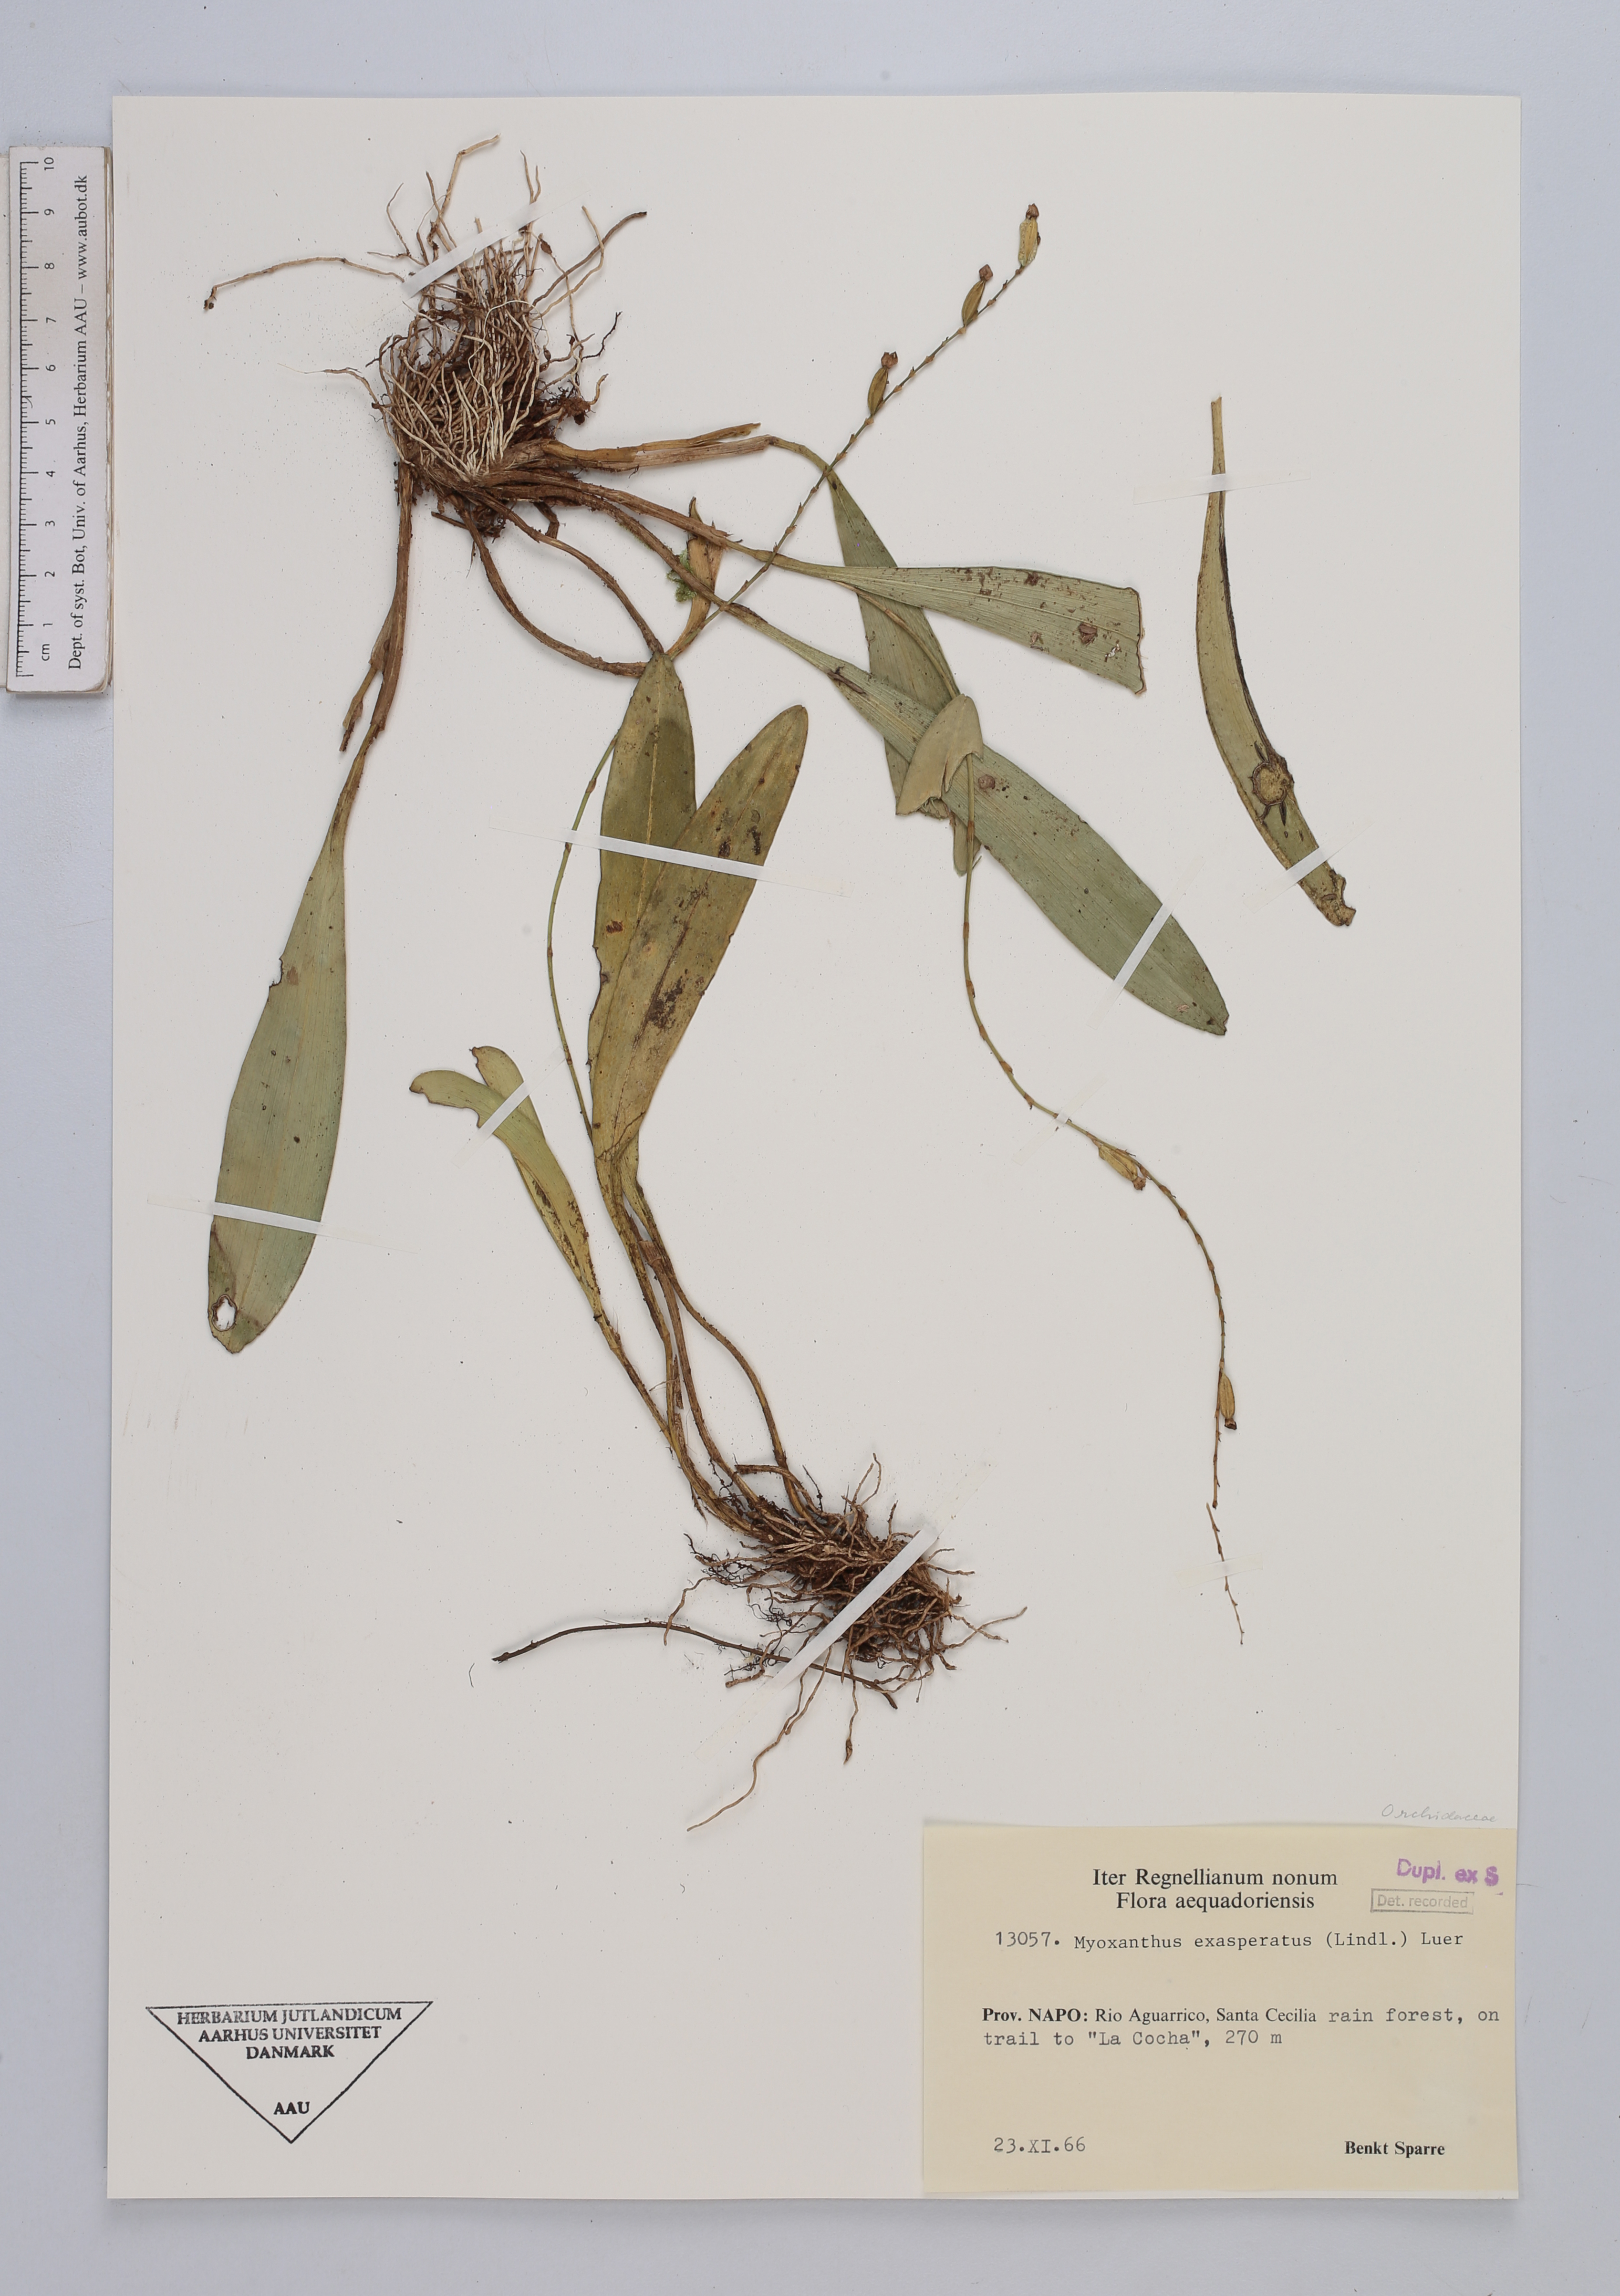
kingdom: Plantae
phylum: Tracheophyta
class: Liliopsida
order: Asparagales
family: Orchidaceae
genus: Myoxanthus
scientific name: Myoxanthus exasperatus
